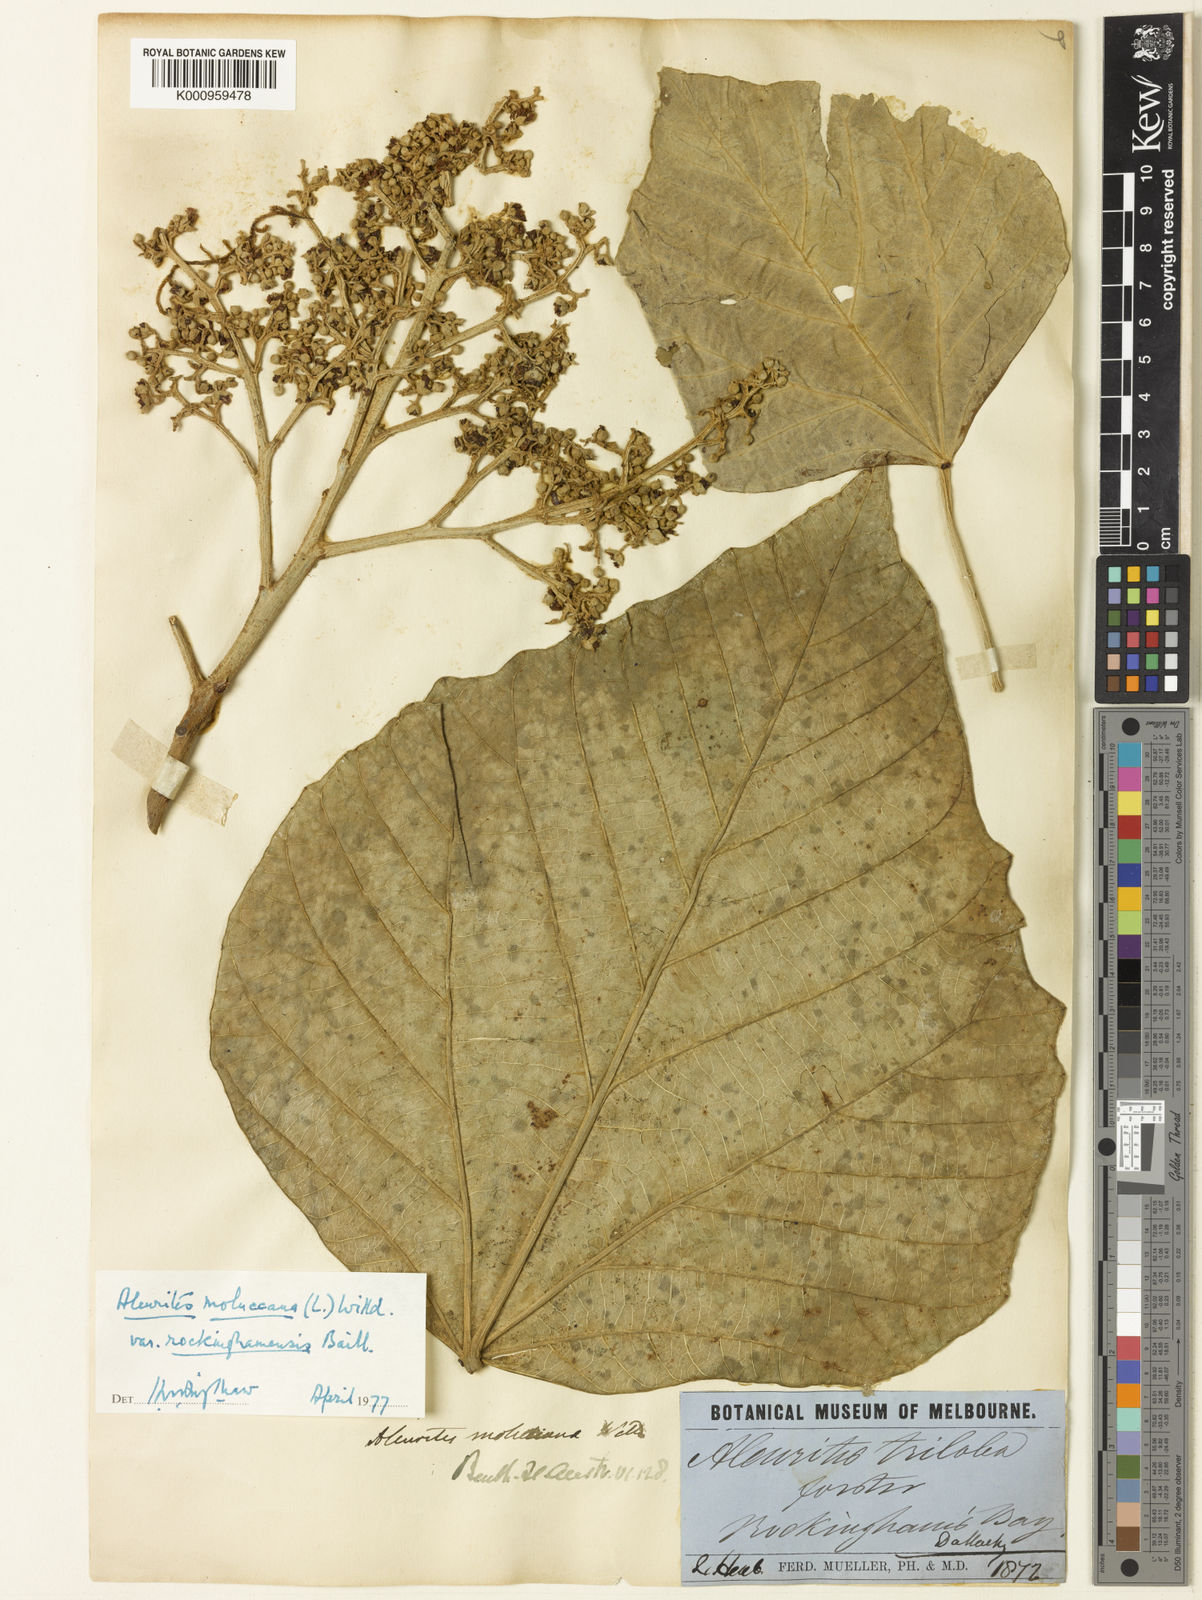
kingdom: Plantae
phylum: Tracheophyta
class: Magnoliopsida
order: Malpighiales
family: Euphorbiaceae
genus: Aleurites
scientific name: Aleurites rockinghamensis
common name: Candelnut
